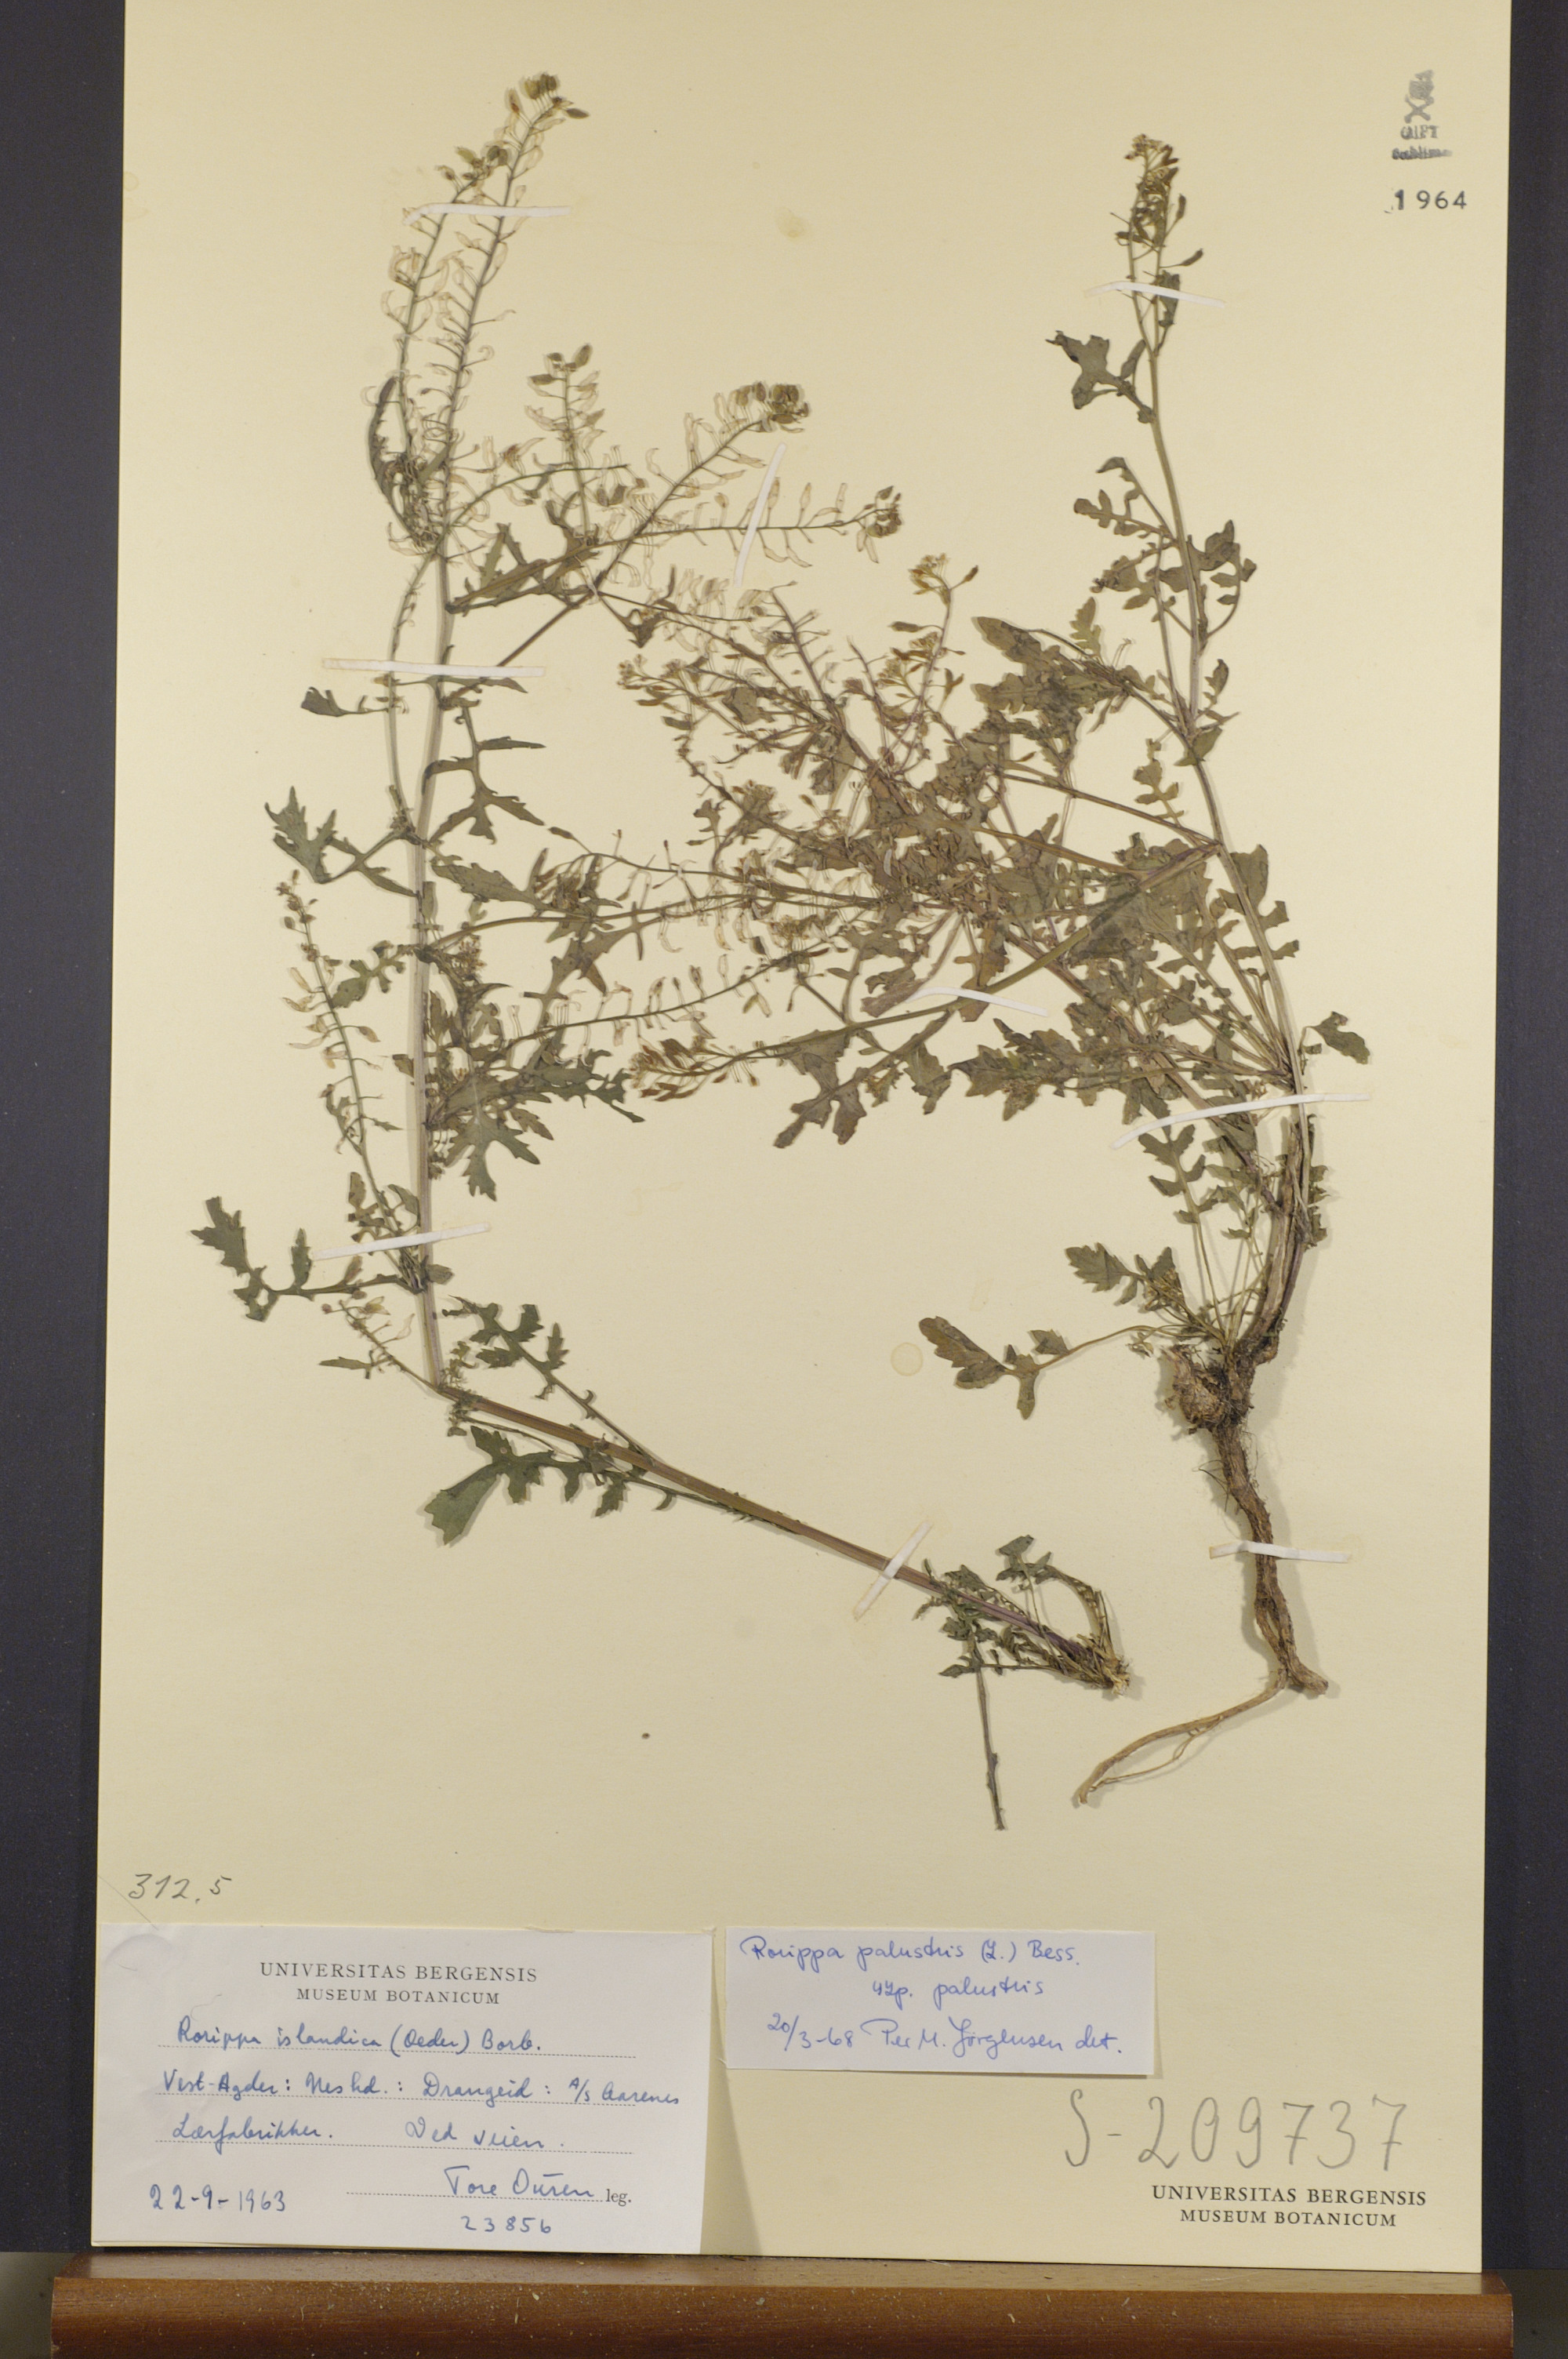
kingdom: Plantae
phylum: Tracheophyta
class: Magnoliopsida
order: Brassicales
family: Brassicaceae
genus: Rorippa
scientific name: Rorippa palustris
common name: Marsh yellow-cress
